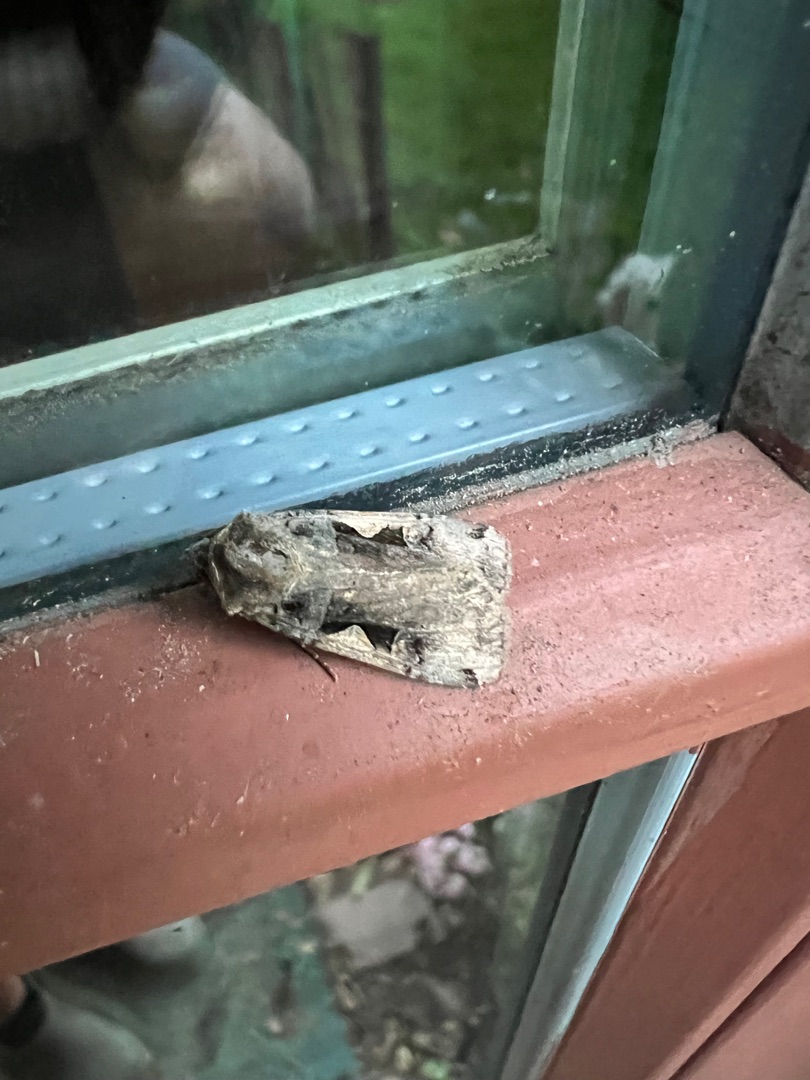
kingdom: Animalia
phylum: Arthropoda
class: Insecta
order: Lepidoptera
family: Noctuidae
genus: Xestia
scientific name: Xestia c-nigrum
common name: Det sorte c
